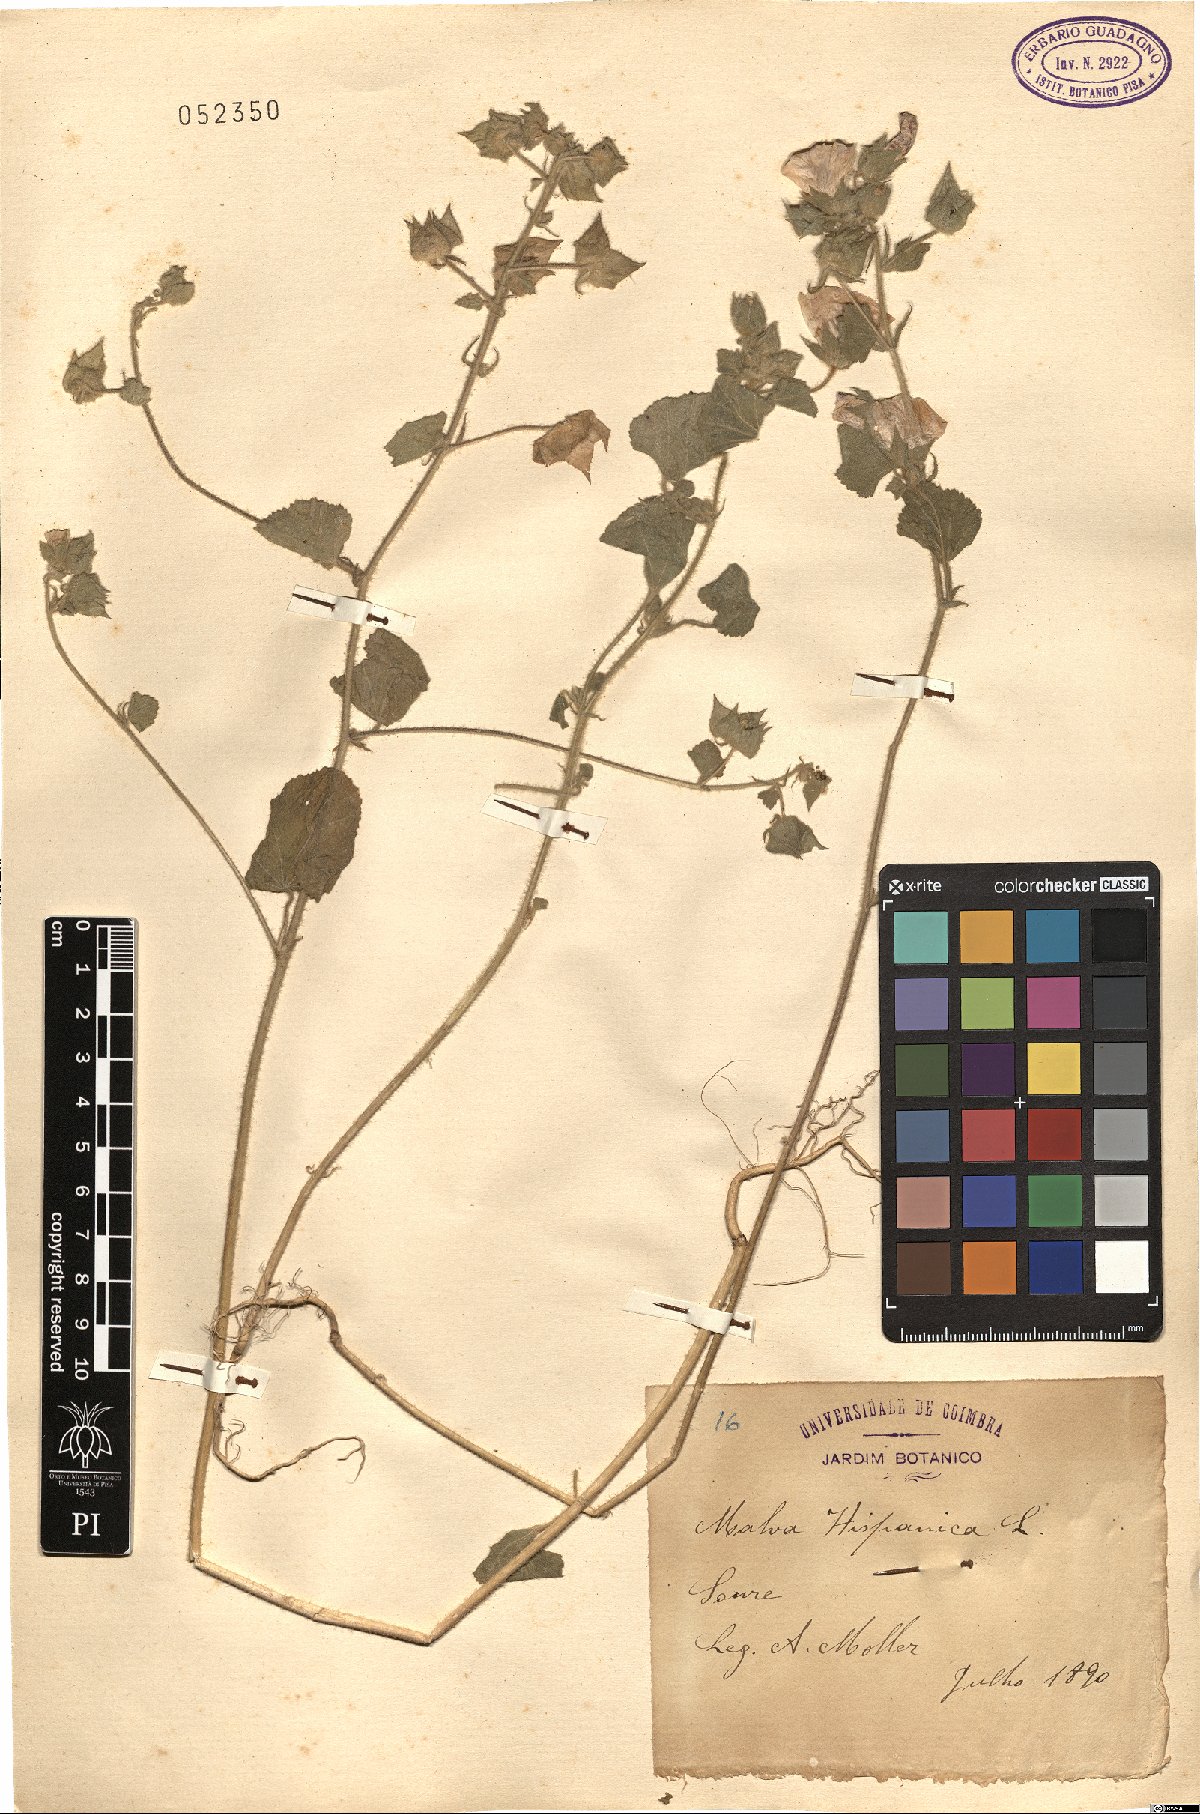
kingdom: Plantae
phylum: Tracheophyta
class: Magnoliopsida
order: Malvales
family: Malvaceae
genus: Malva
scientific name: Malva hispanica
